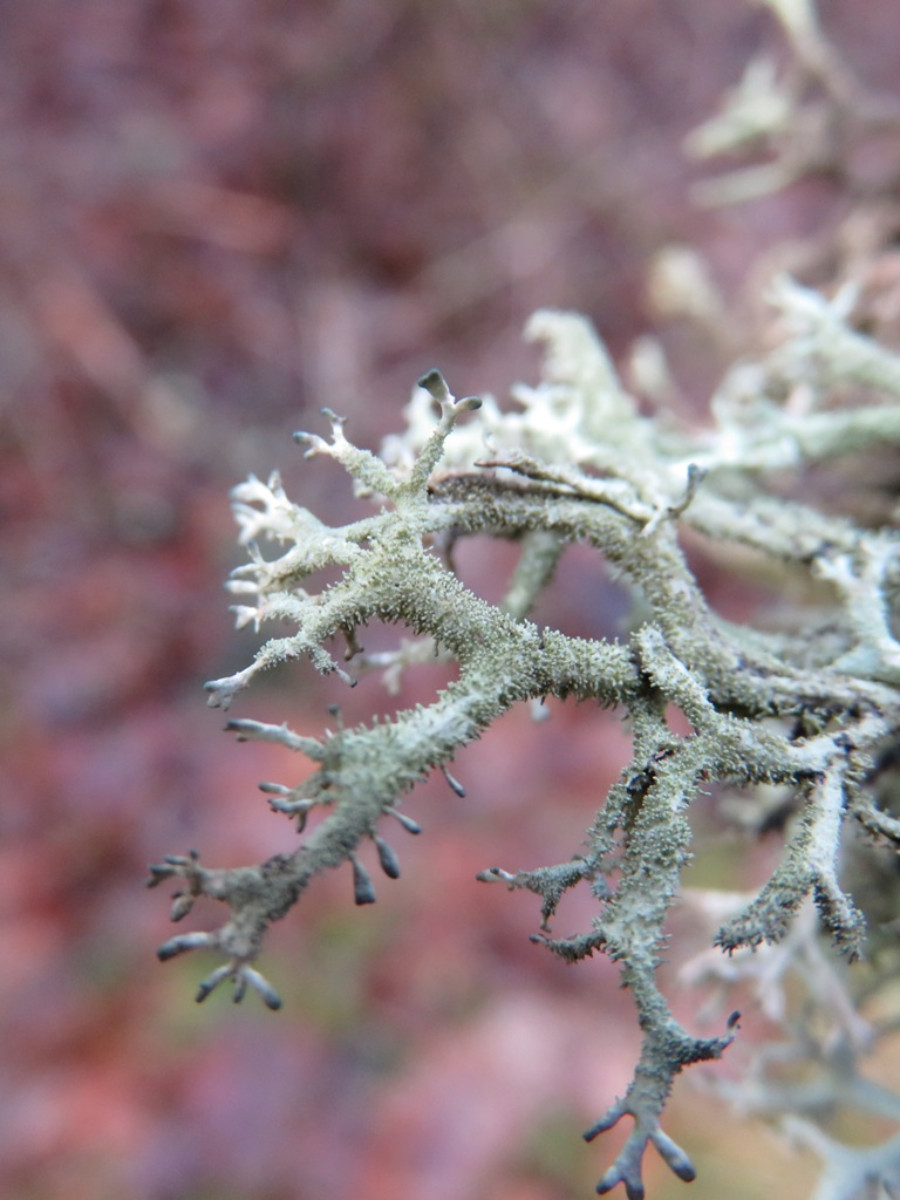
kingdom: Fungi
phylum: Ascomycota
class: Lecanoromycetes
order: Lecanorales
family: Parmeliaceae
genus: Pseudevernia
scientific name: Pseudevernia furfuracea
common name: grå fyrrelav
